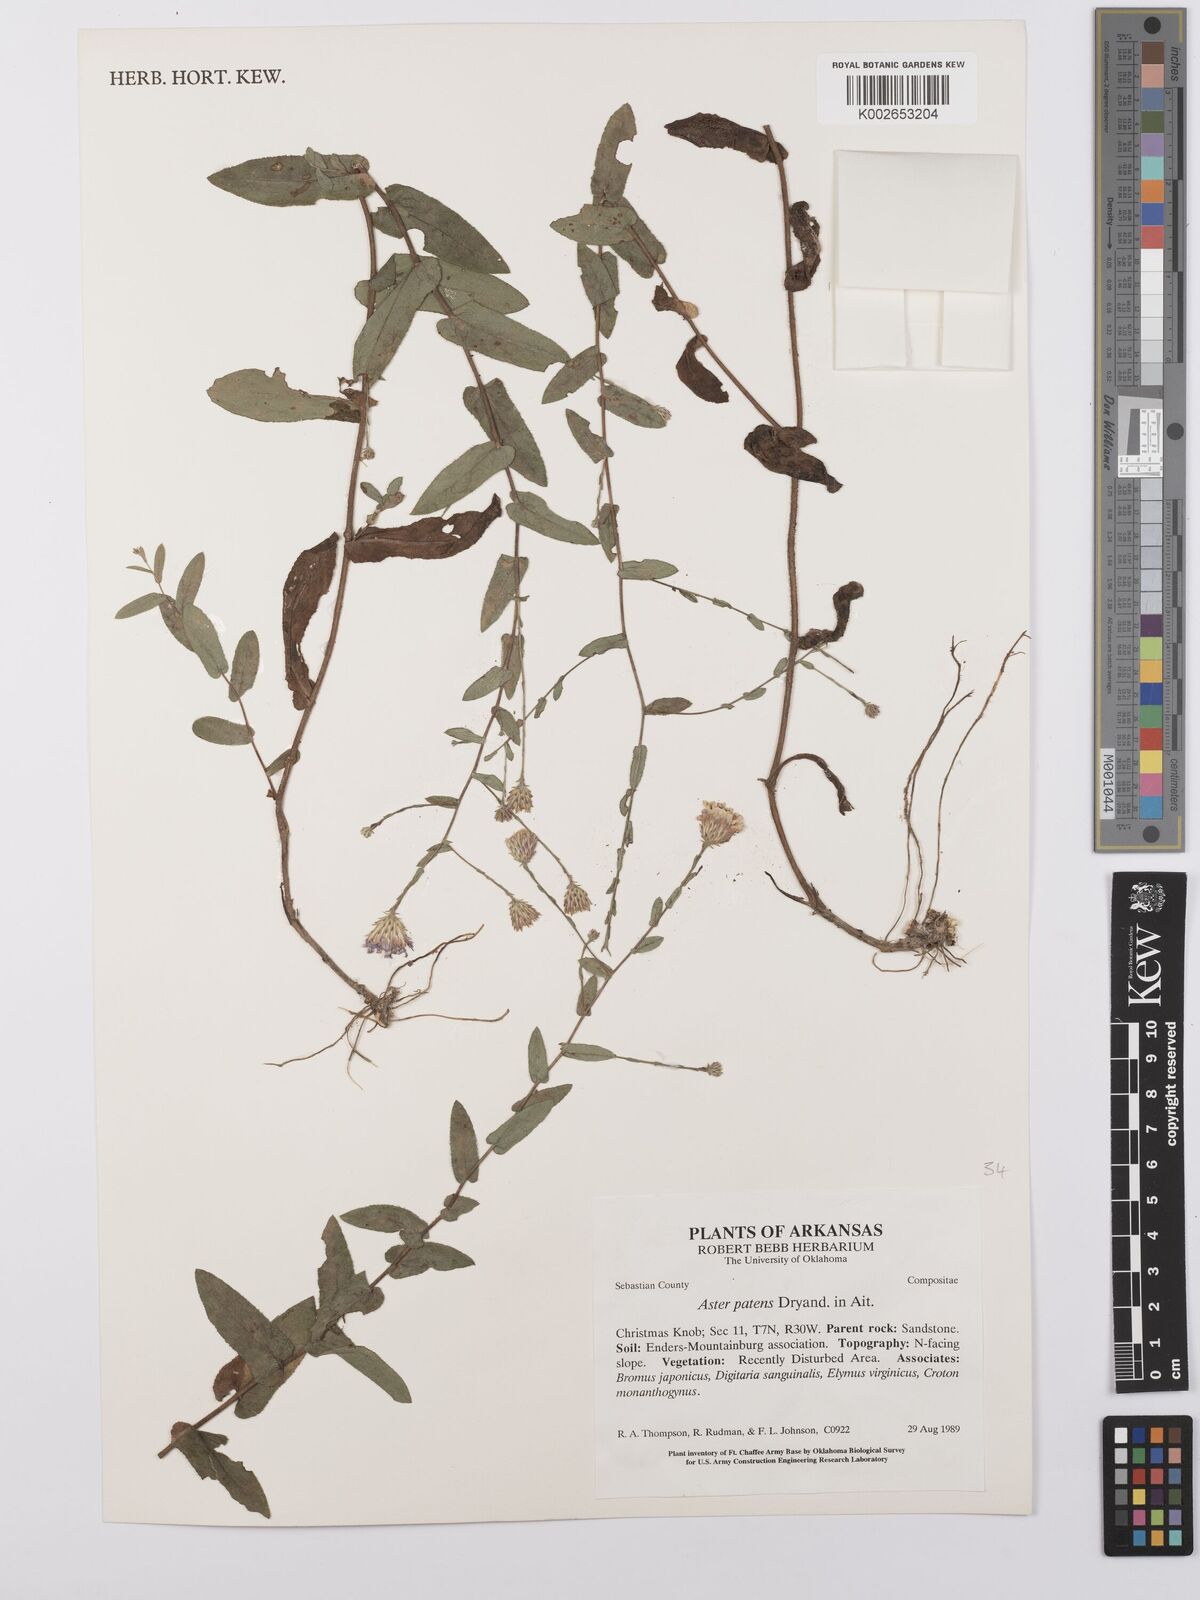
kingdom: Plantae
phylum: Tracheophyta
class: Magnoliopsida
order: Asterales
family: Asteraceae
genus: Symphyotrichum
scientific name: Symphyotrichum patens
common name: Late purple aster
